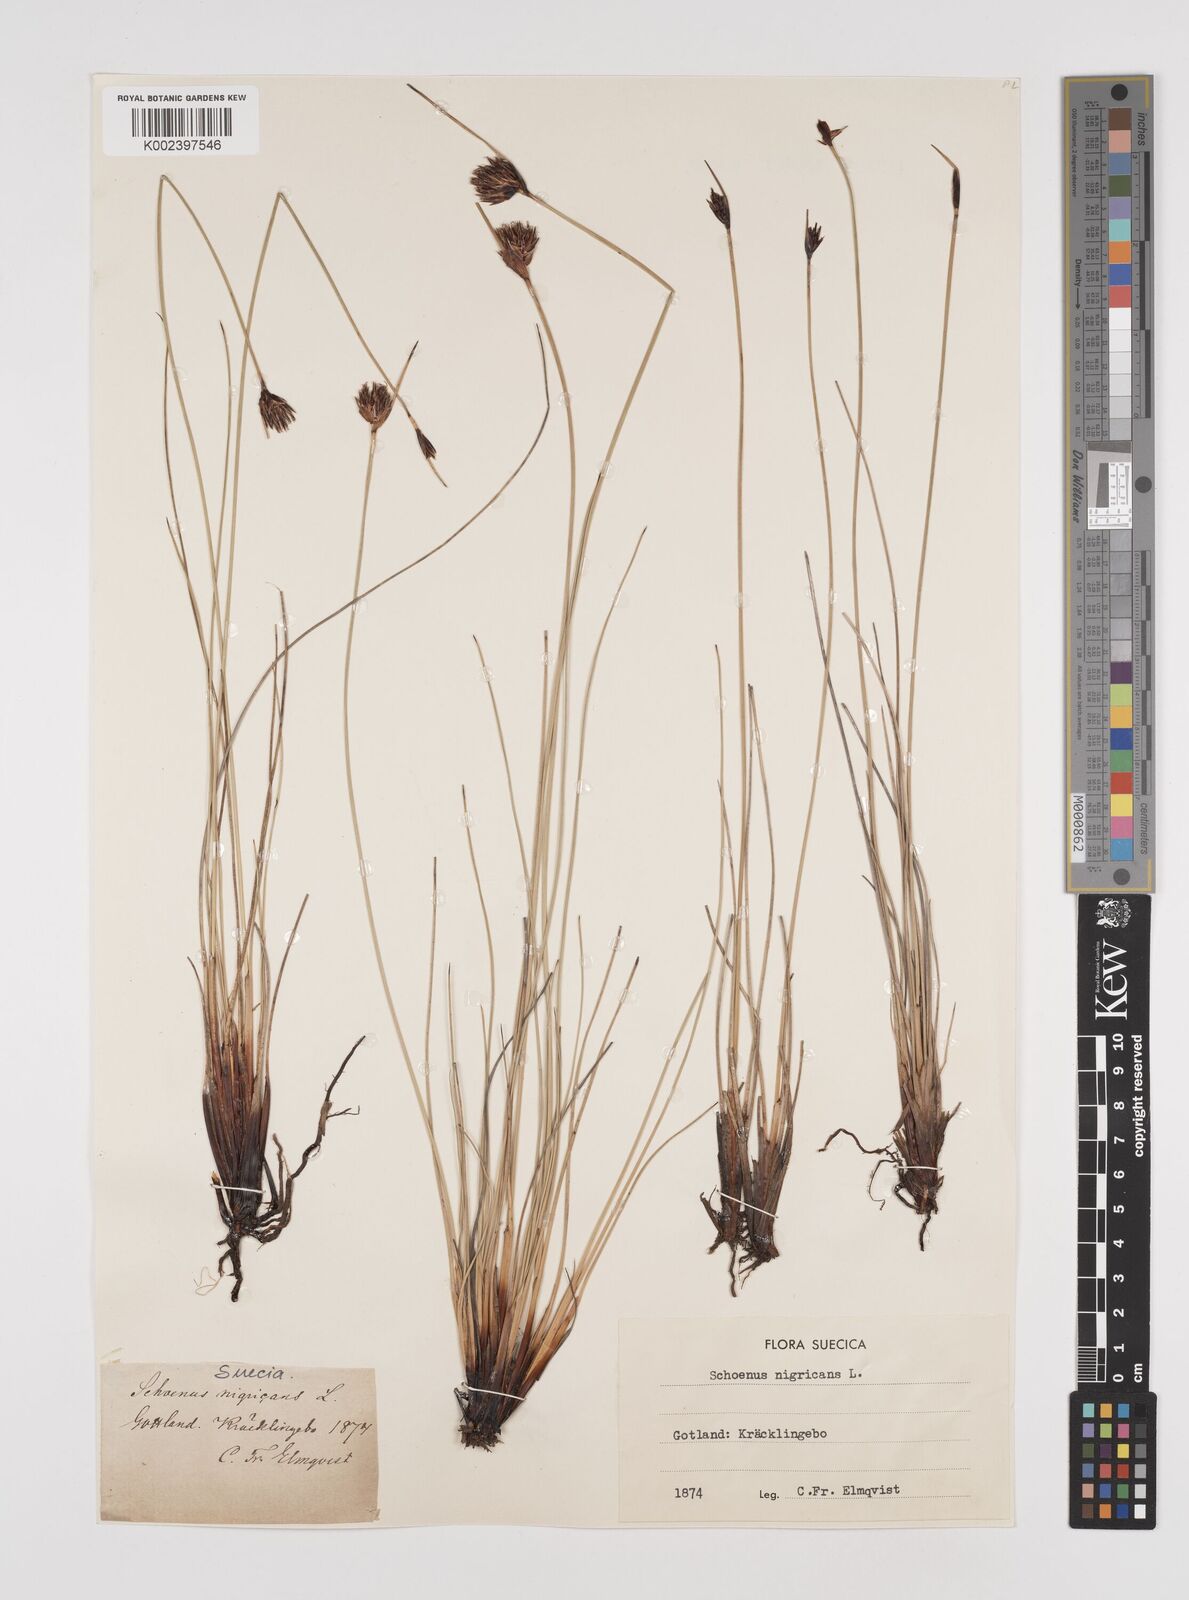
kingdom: Plantae
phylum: Tracheophyta
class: Liliopsida
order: Poales
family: Cyperaceae
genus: Schoenus
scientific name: Schoenus nigricans
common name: Black bog-rush
